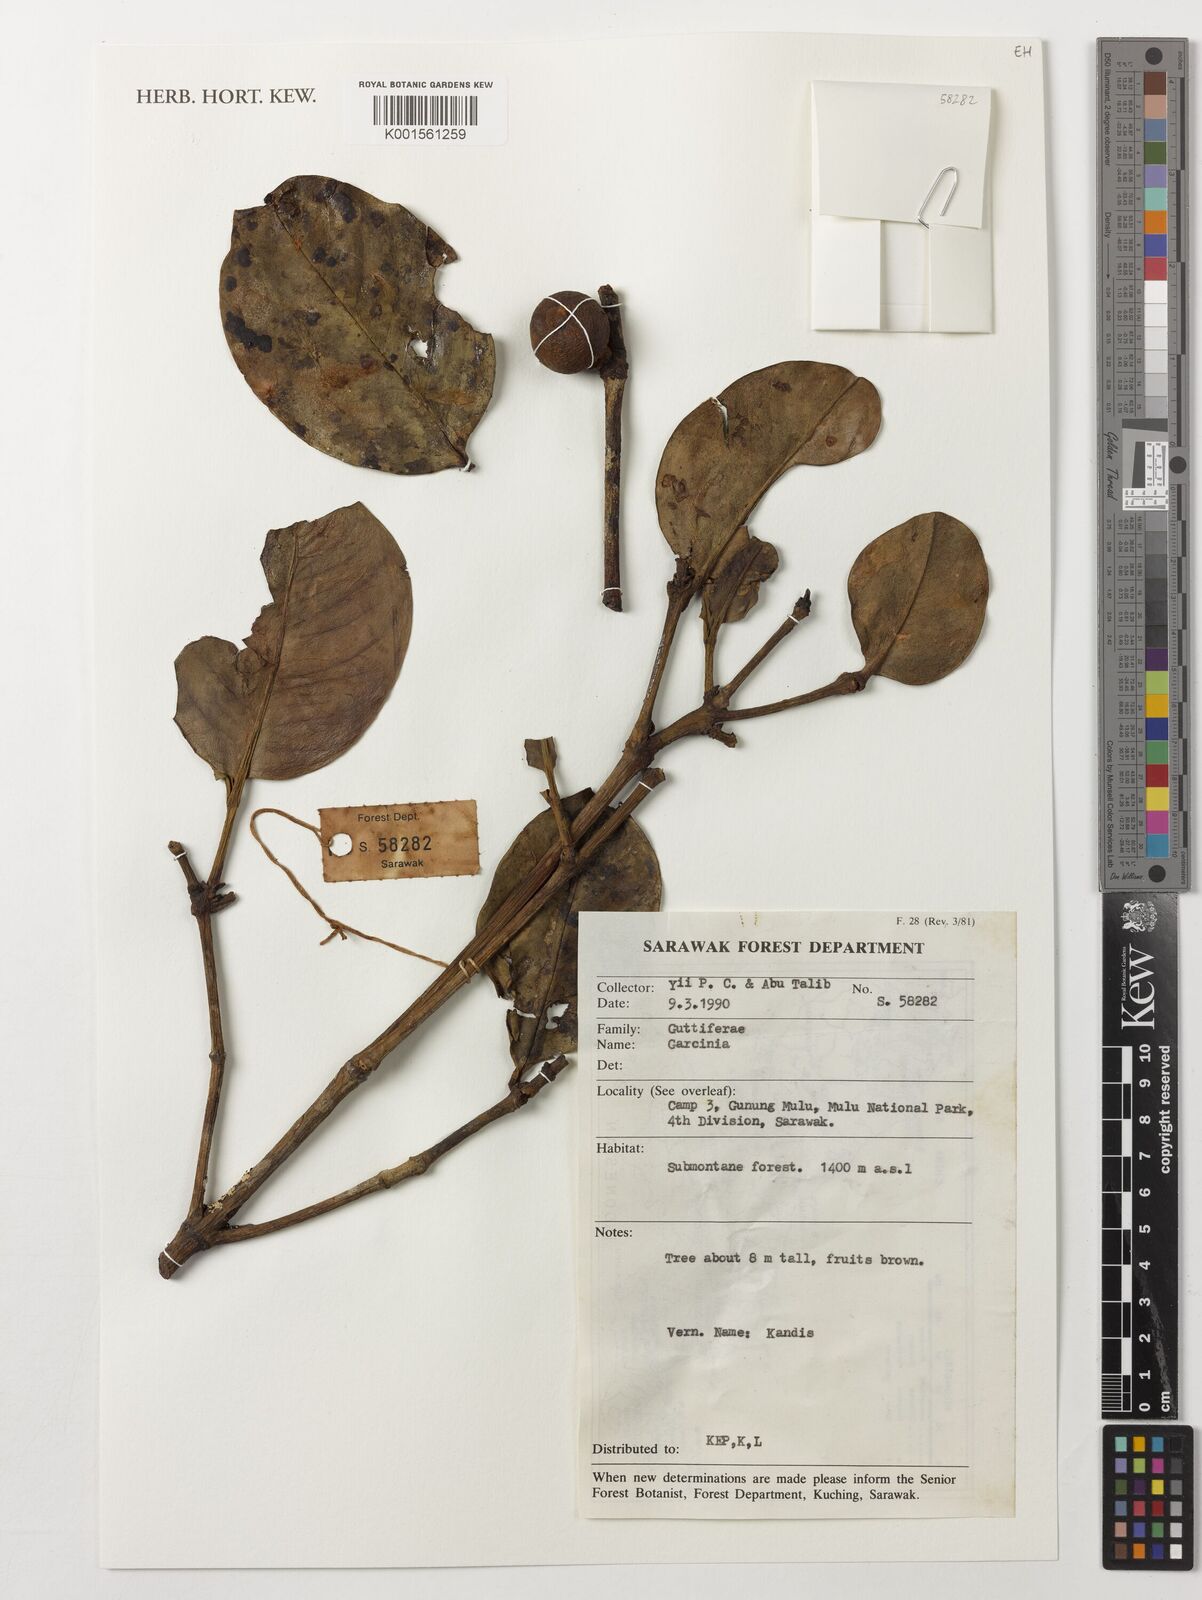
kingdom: Plantae
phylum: Tracheophyta
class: Magnoliopsida
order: Malpighiales
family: Clusiaceae
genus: Garcinia
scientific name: Garcinia
